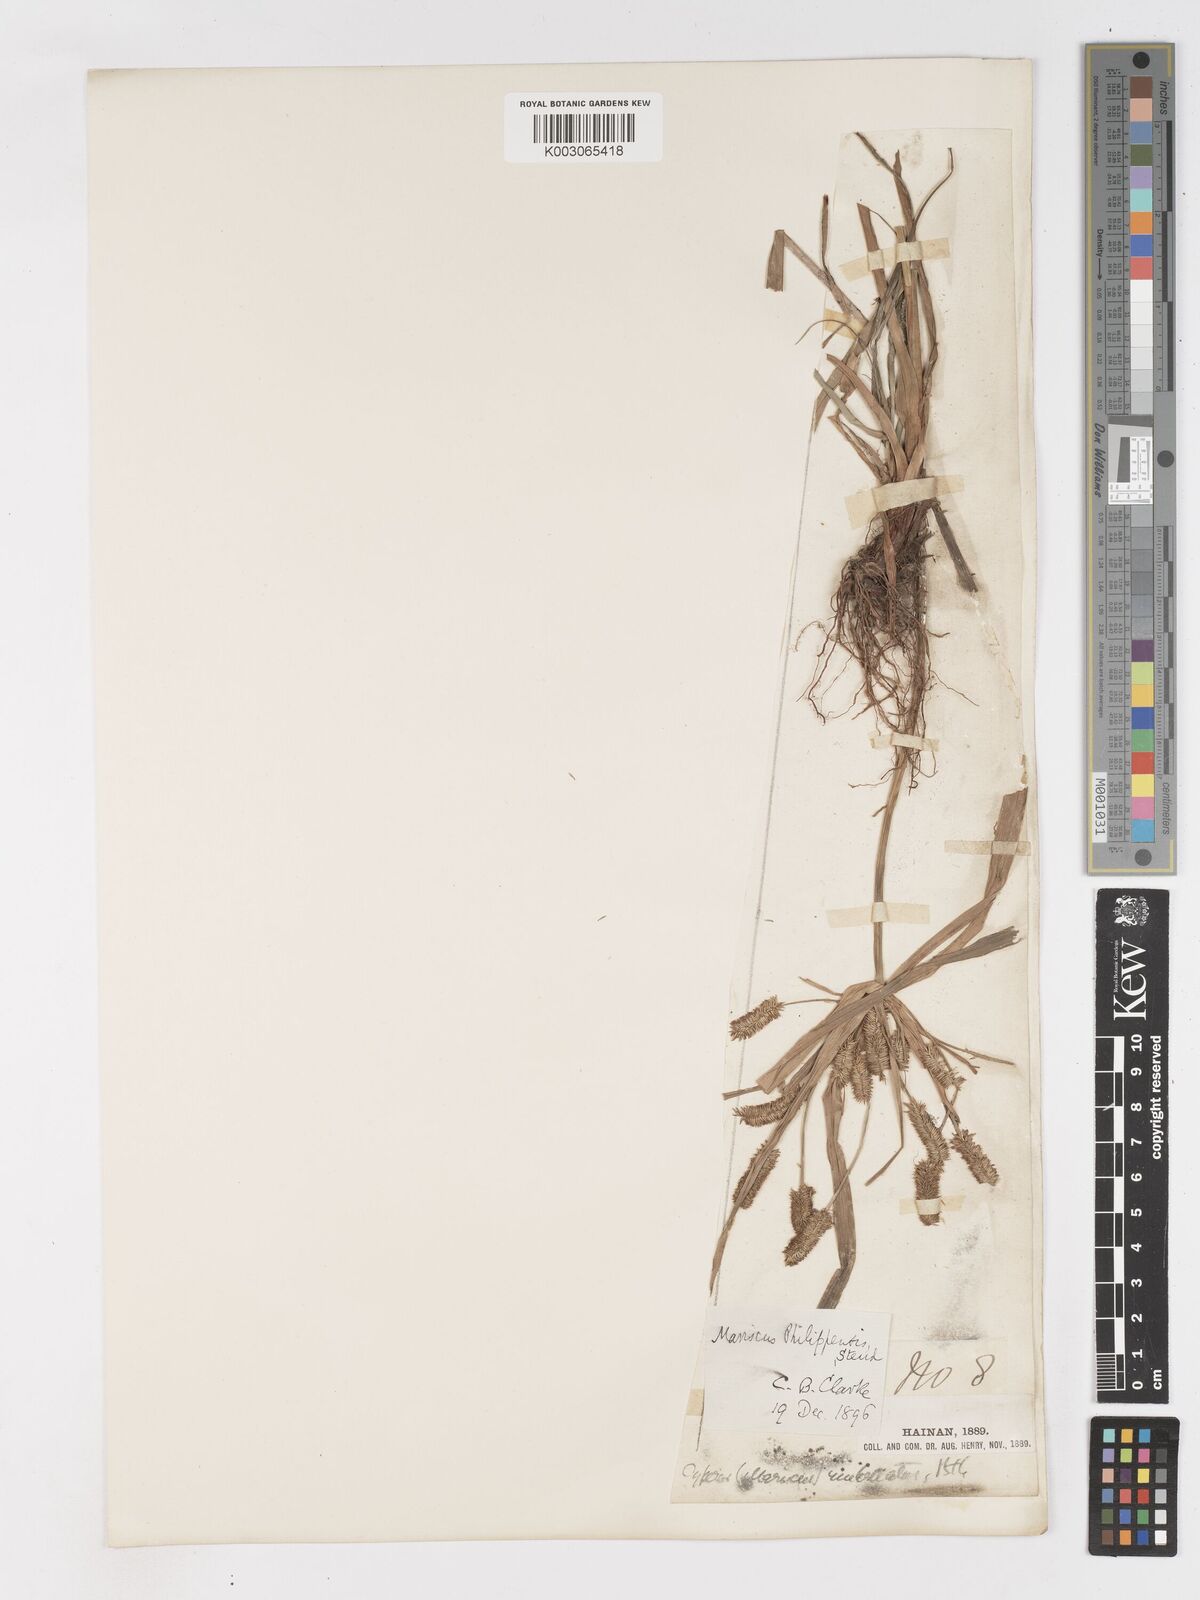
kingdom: Plantae
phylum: Tracheophyta
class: Liliopsida
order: Poales
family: Cyperaceae
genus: Cyperus
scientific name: Cyperus cyperoides
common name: Pacific island flat sedge
